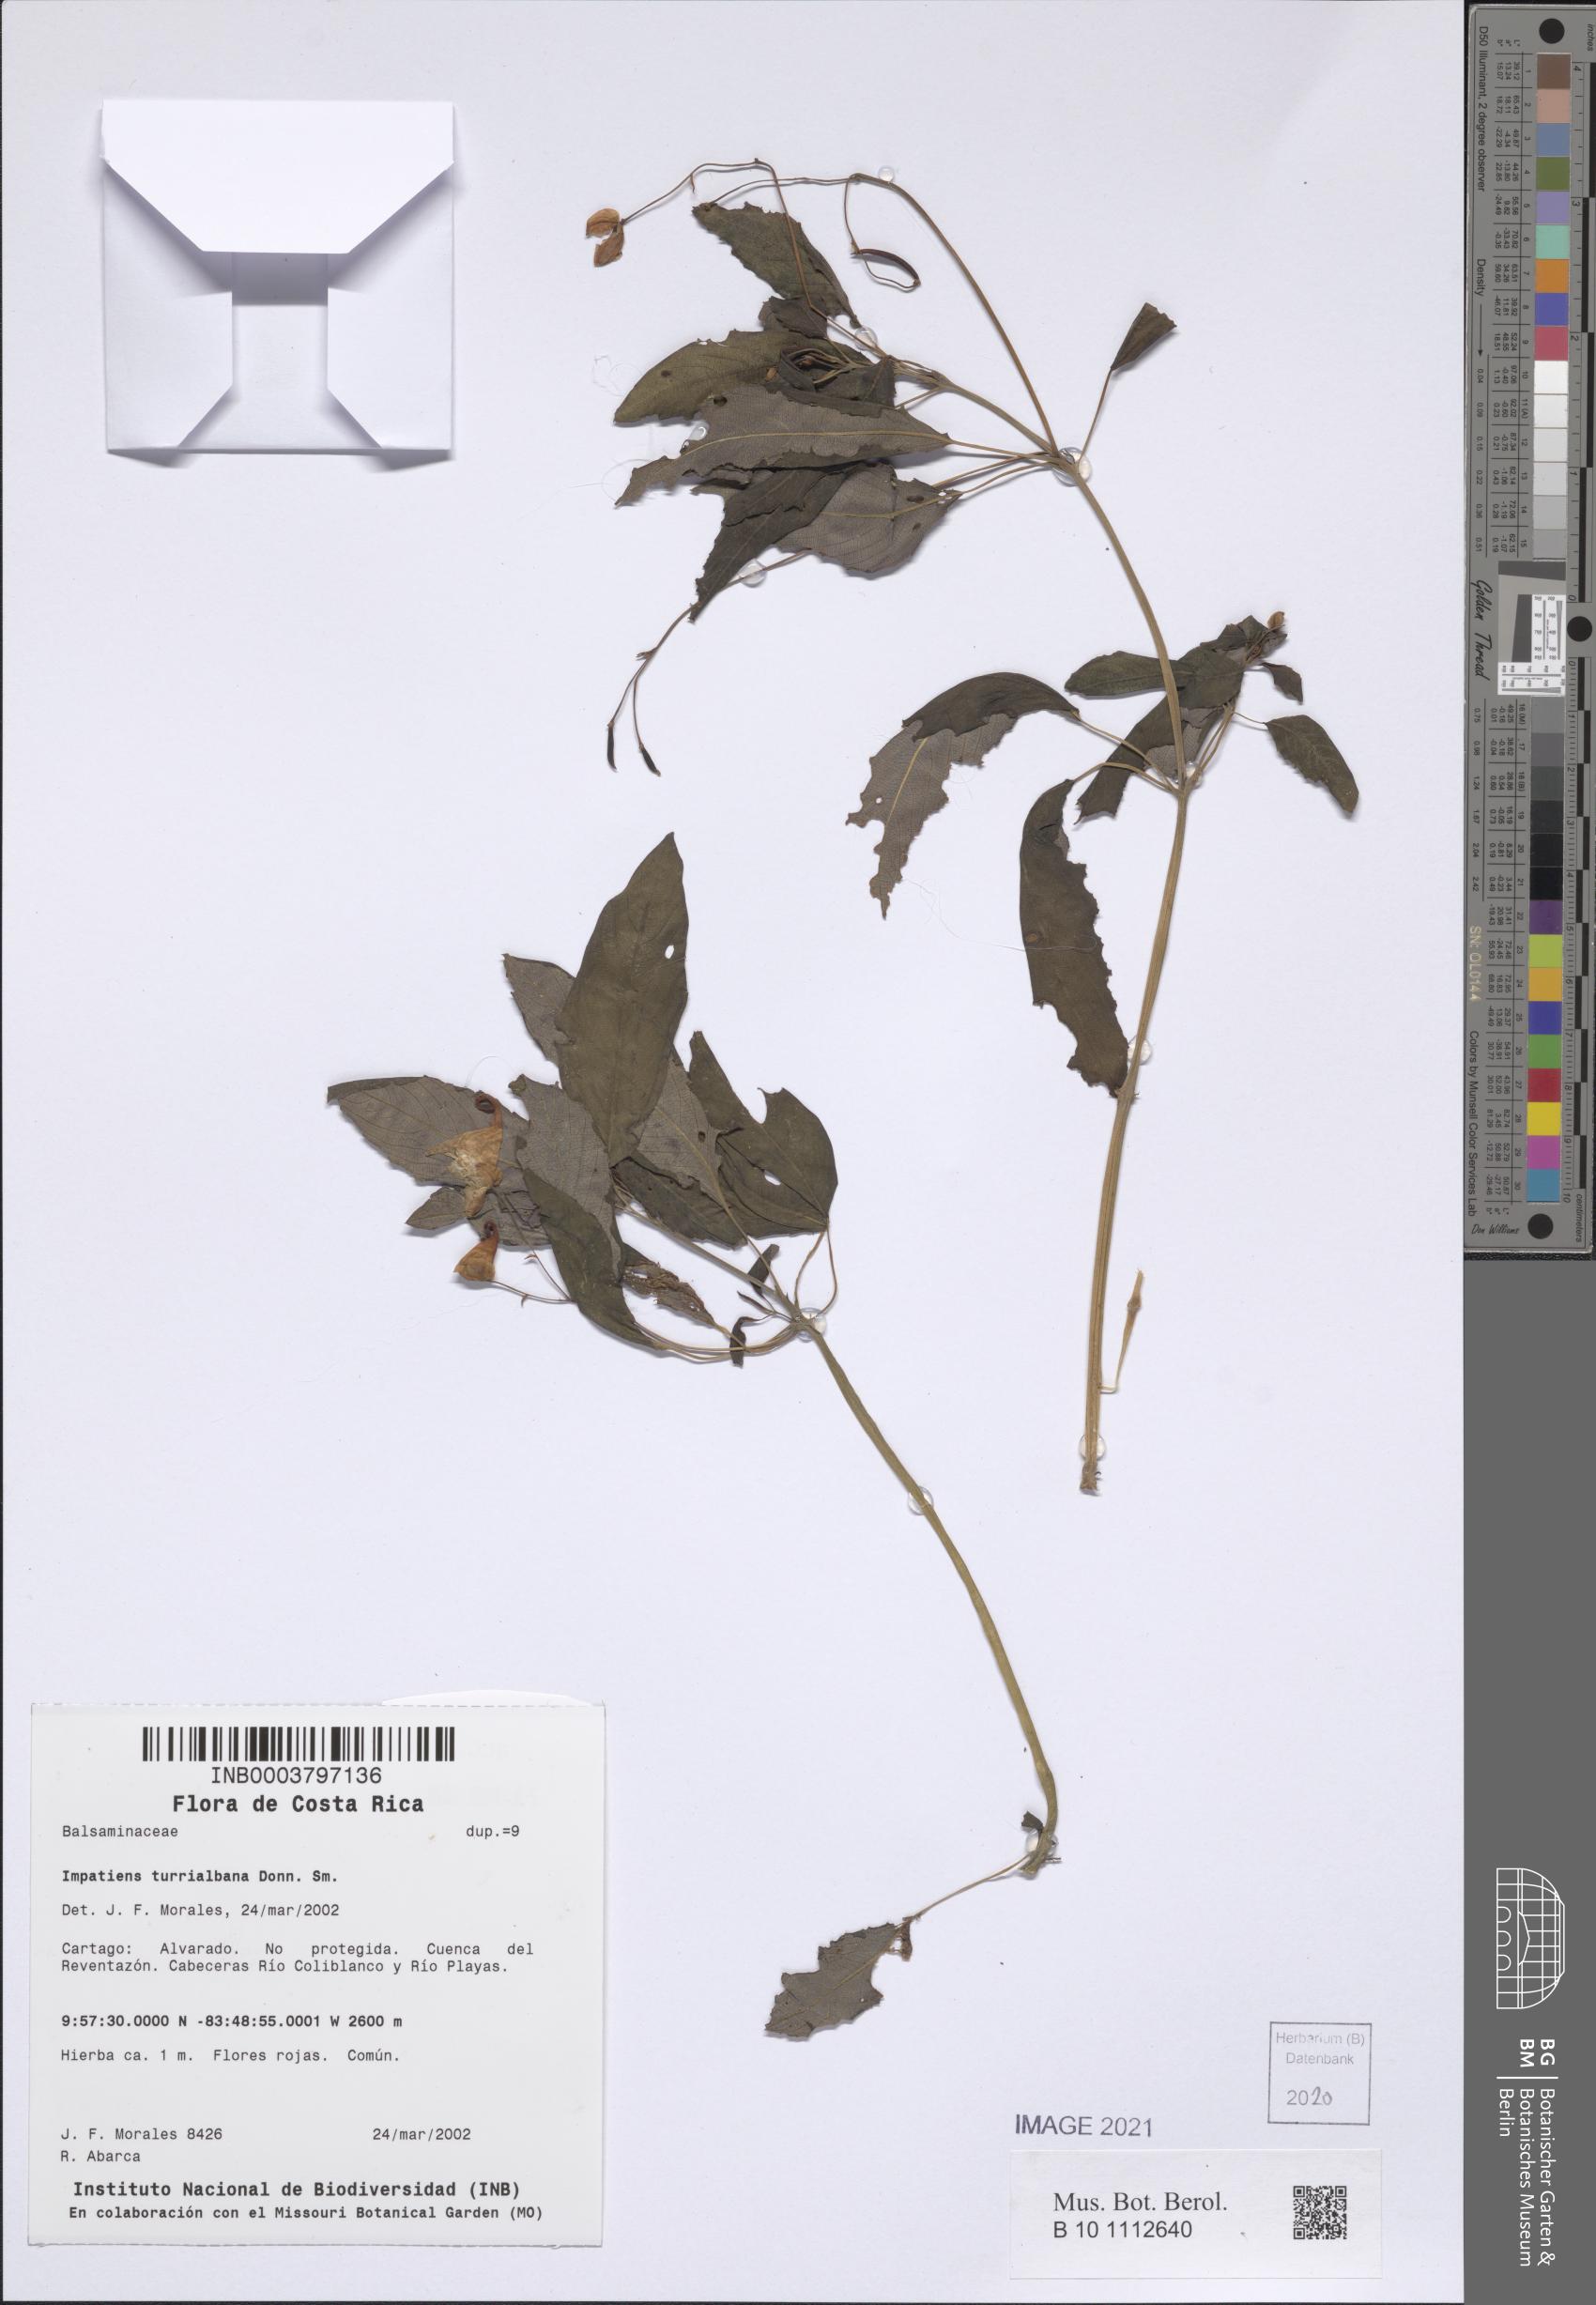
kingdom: Plantae
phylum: Tracheophyta
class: Magnoliopsida
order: Ericales
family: Balsaminaceae
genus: Impatiens
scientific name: Impatiens turrialbana
